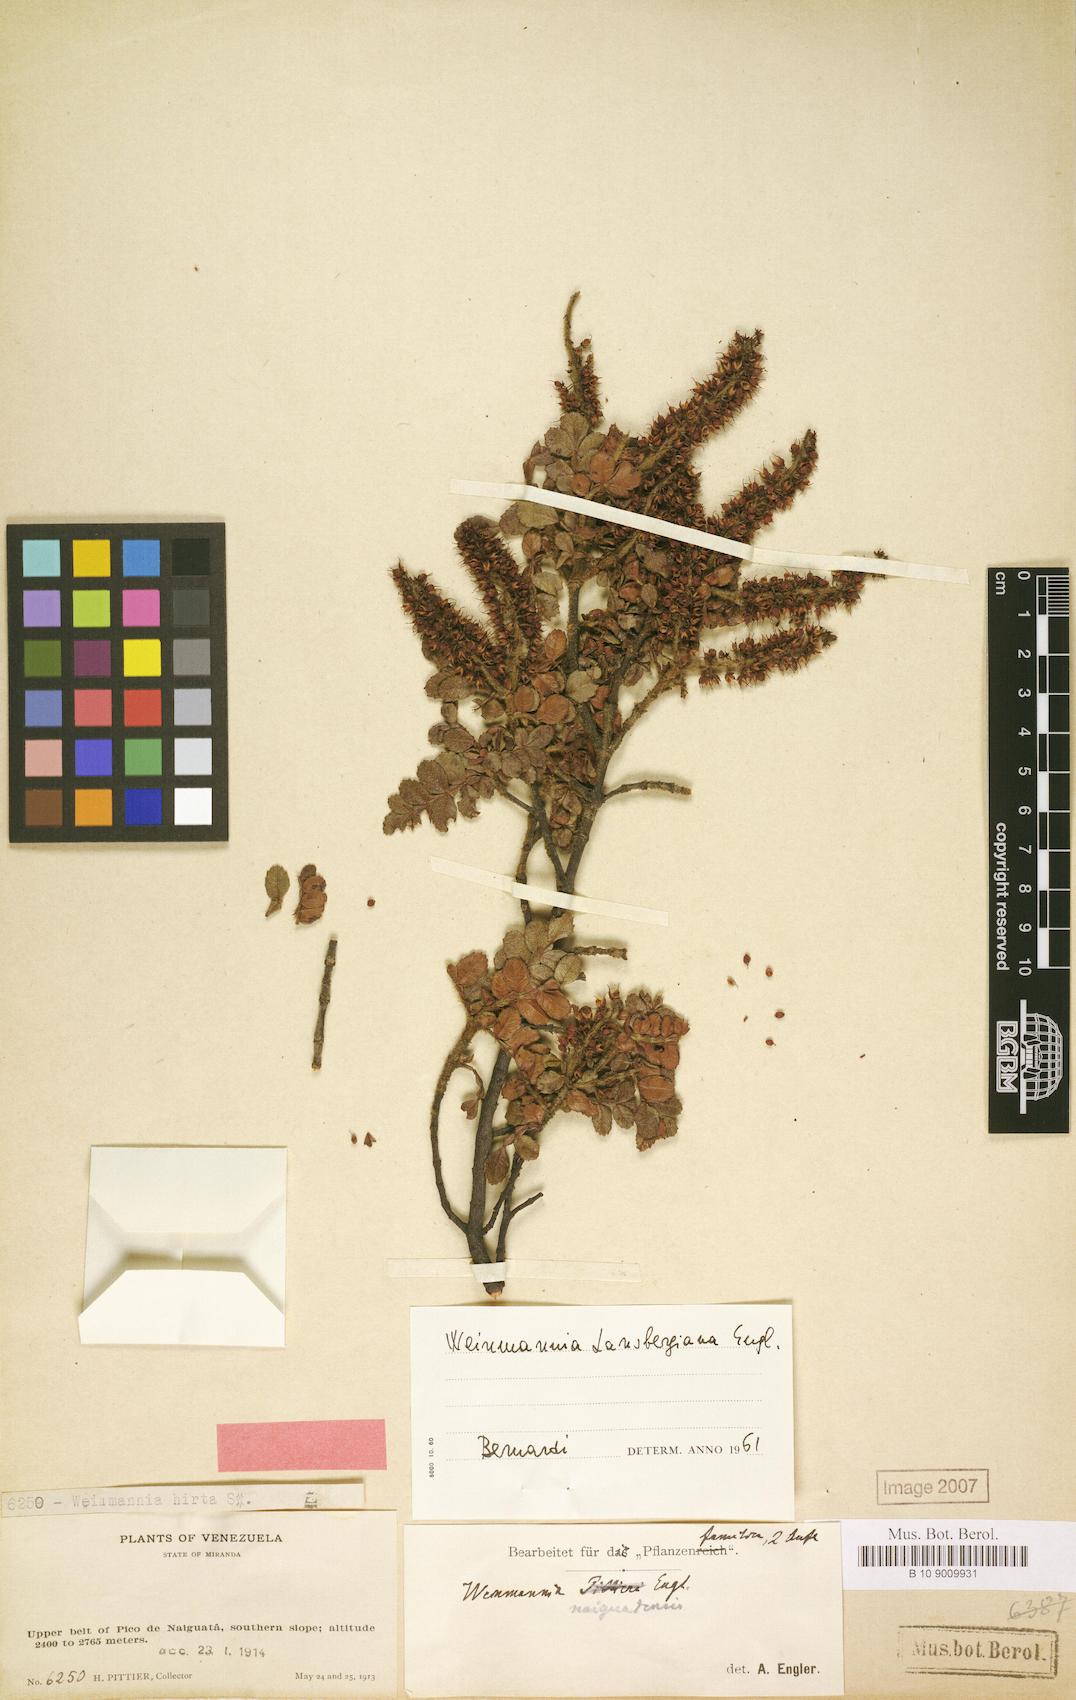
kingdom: Plantae
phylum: Tracheophyta
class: Magnoliopsida
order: Oxalidales
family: Cunoniaceae
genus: Weinmannia
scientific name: Weinmannia lansbergiana
